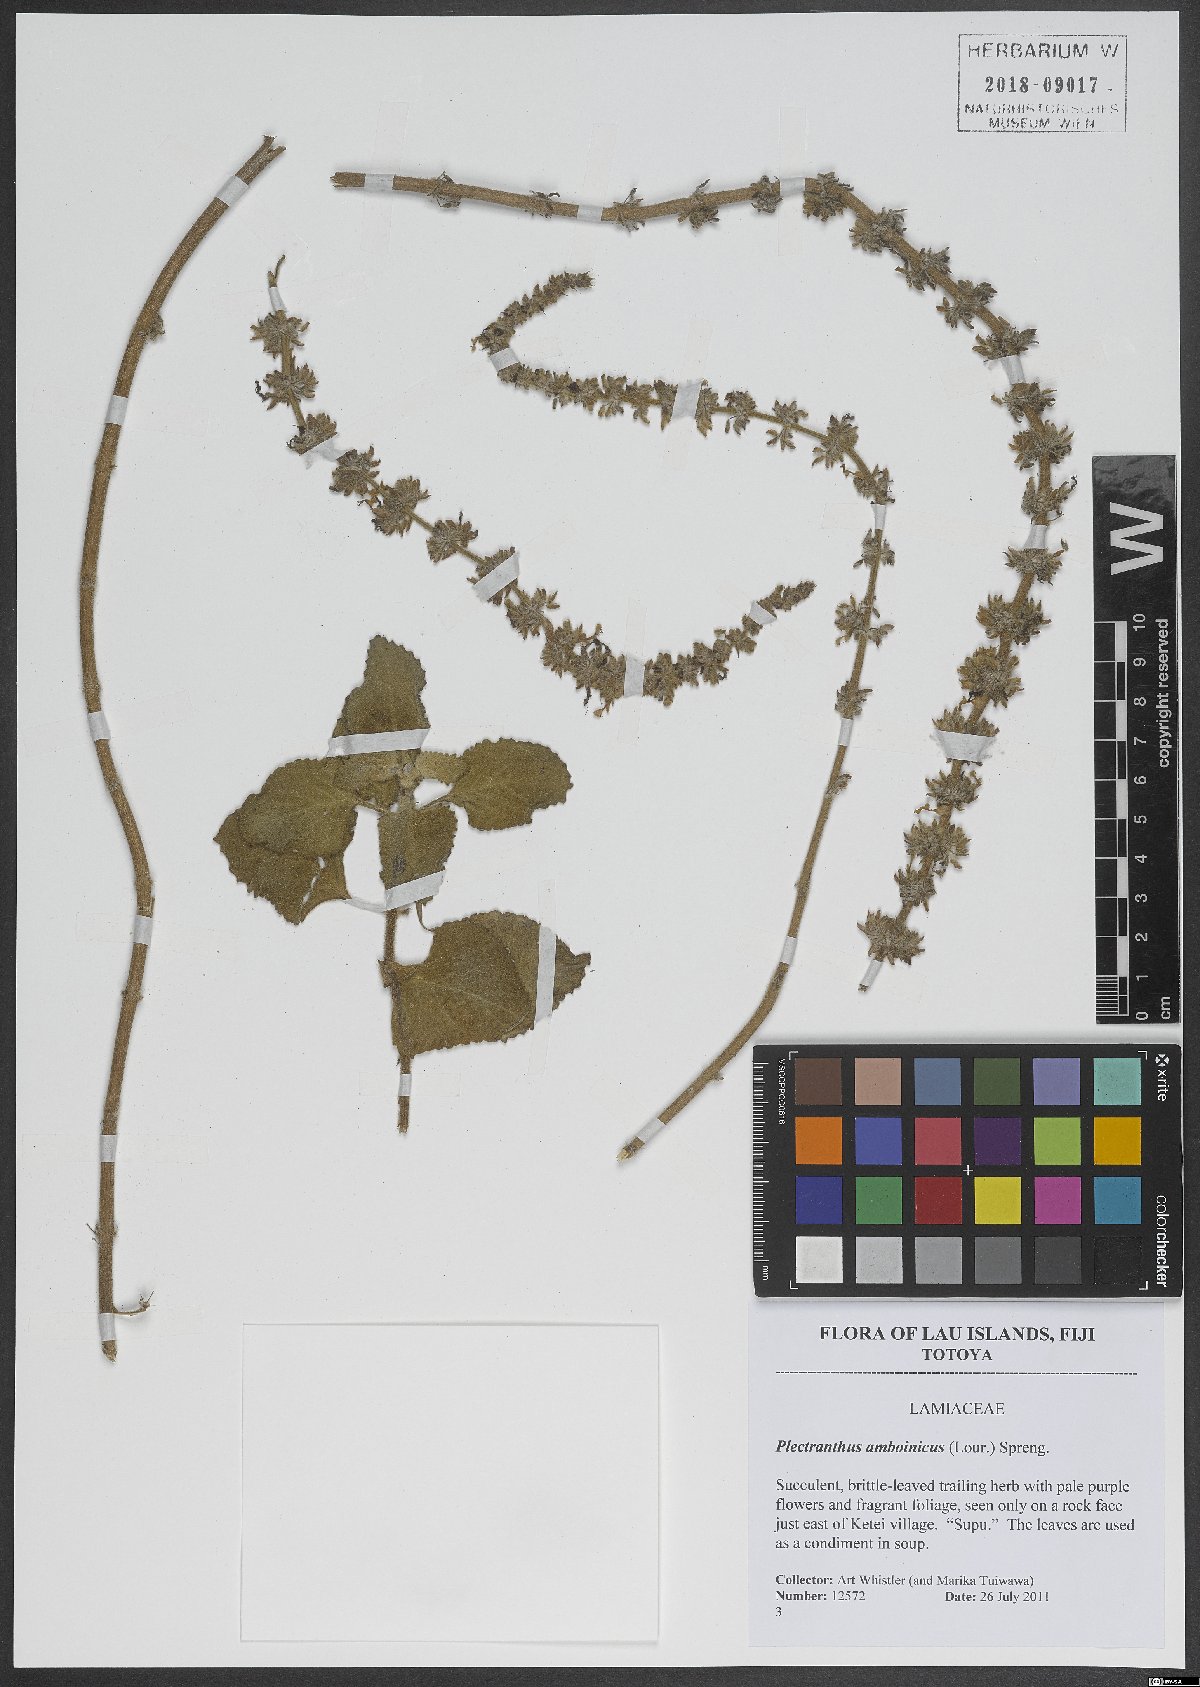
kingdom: Plantae
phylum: Tracheophyta
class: Magnoliopsida
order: Lamiales
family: Lamiaceae
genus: Coleus
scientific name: Coleus amboinicus
